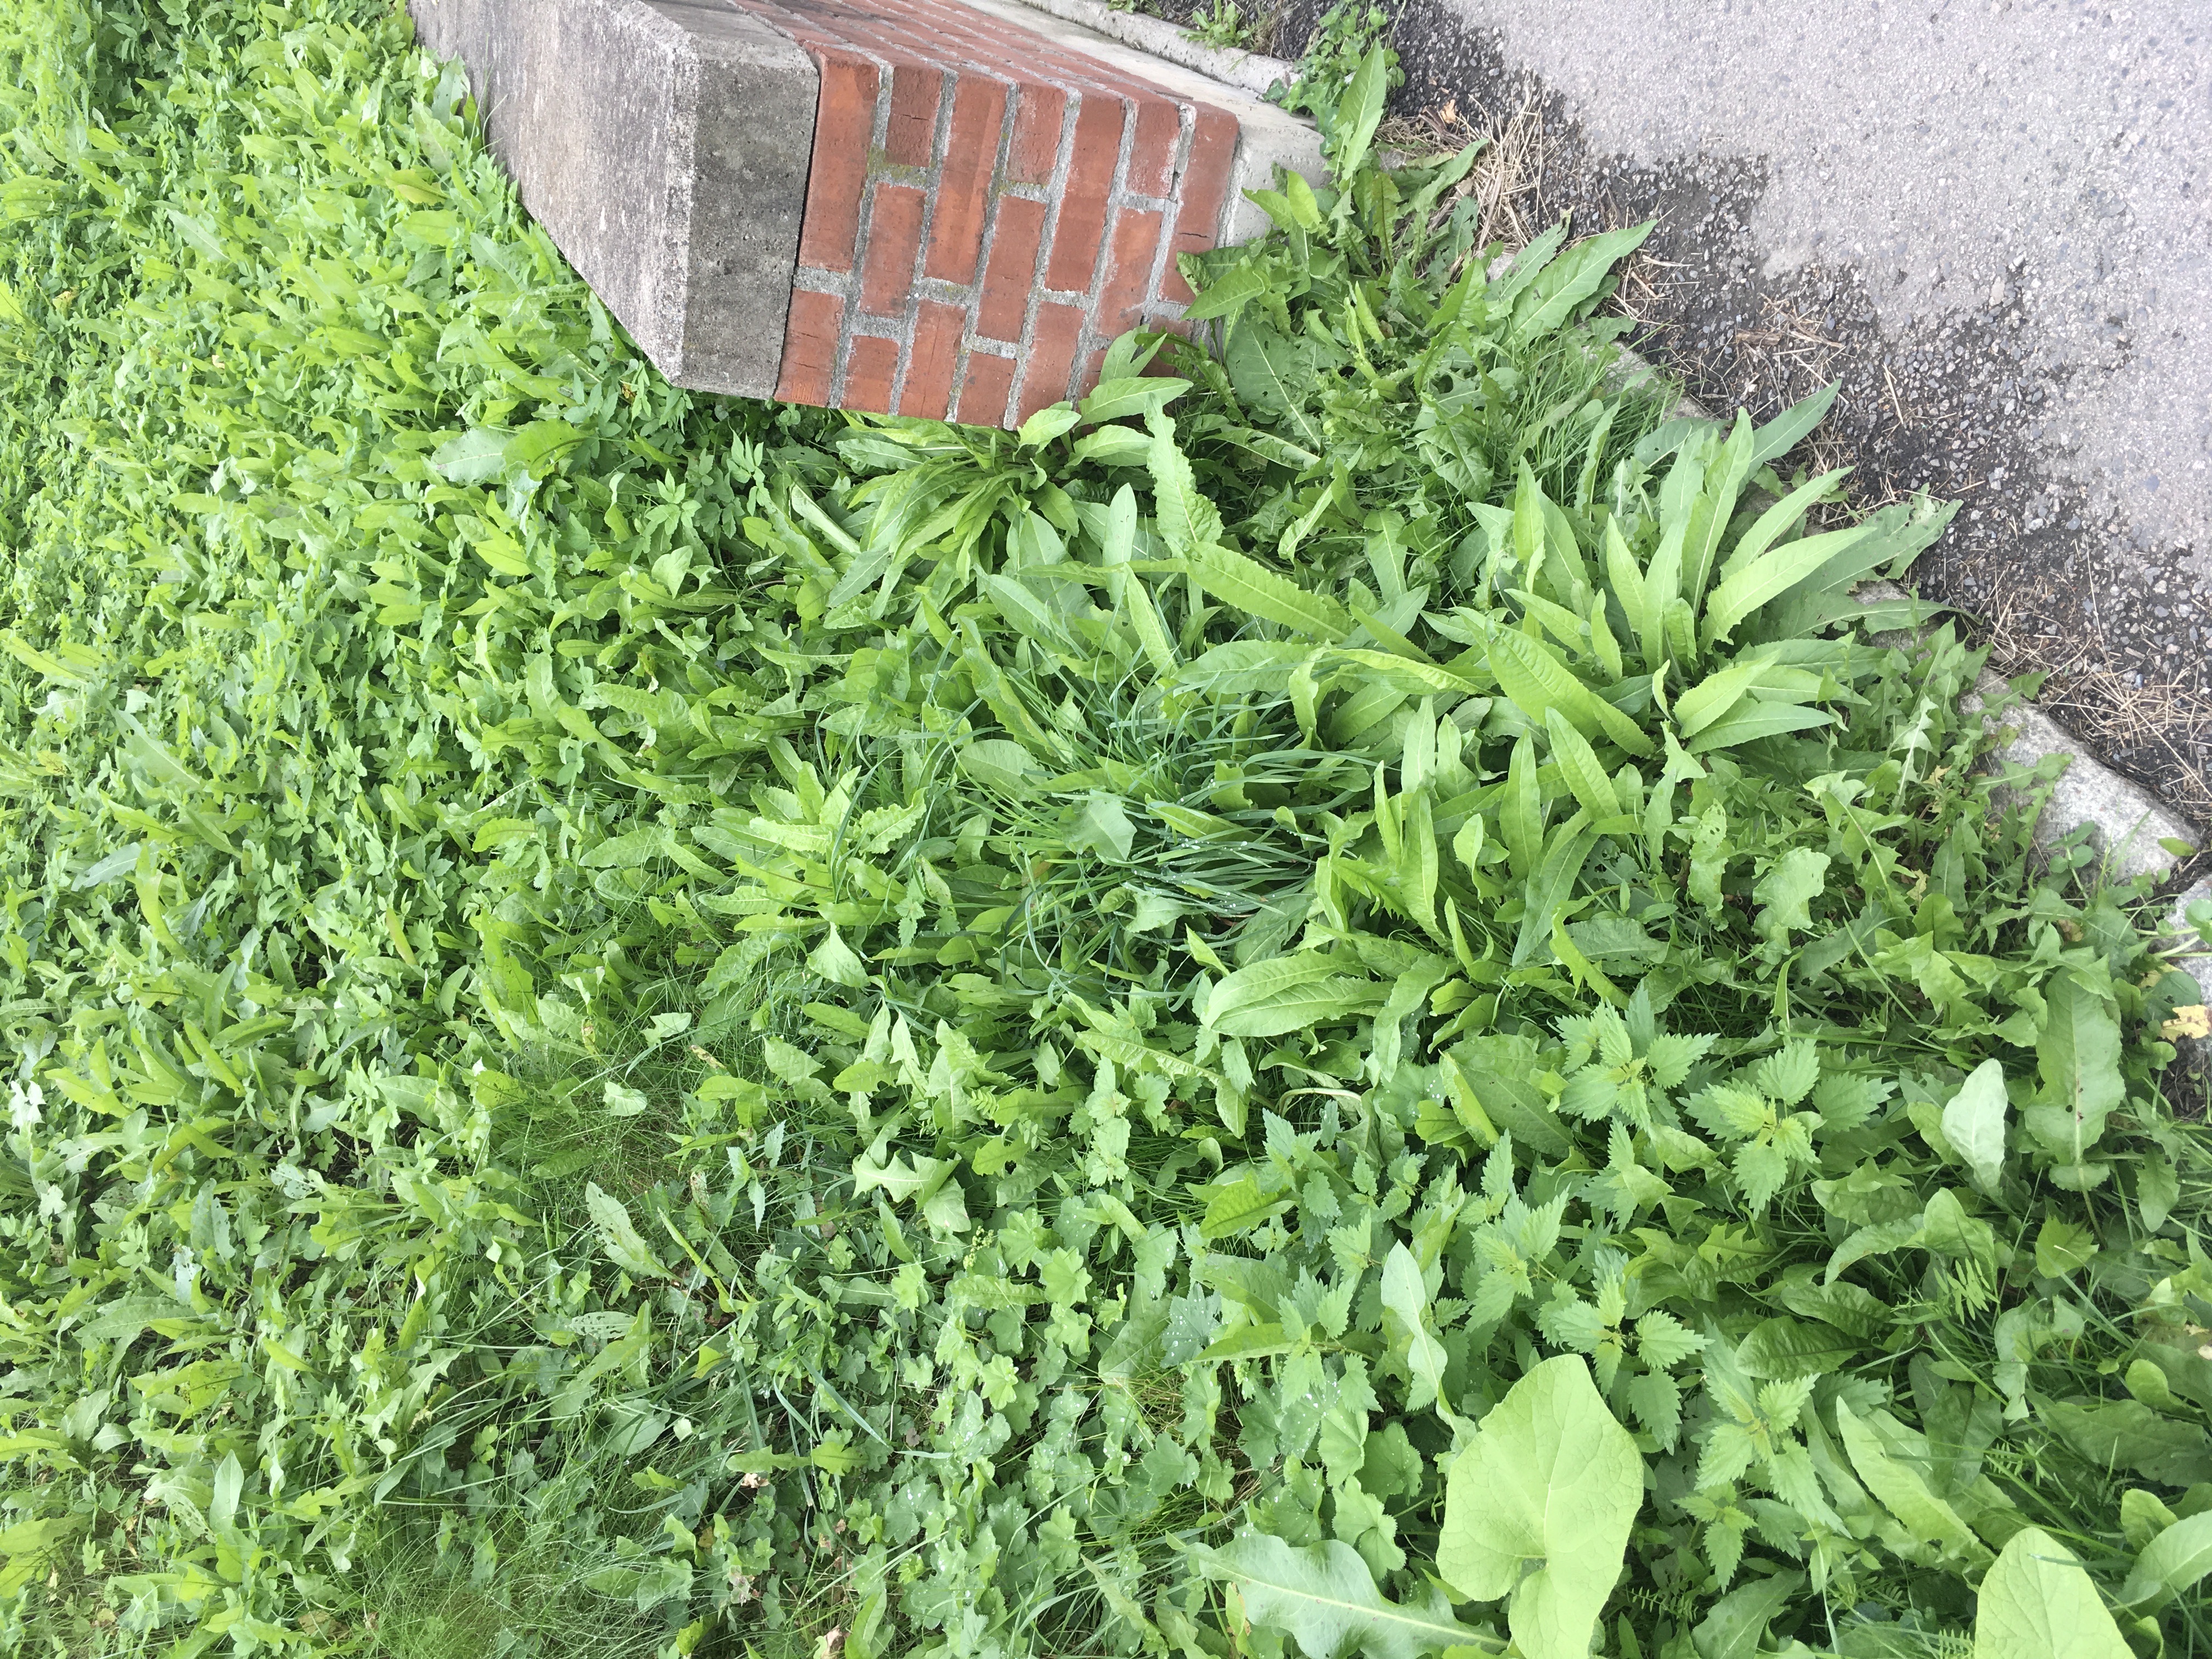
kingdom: Plantae
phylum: Tracheophyta
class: Magnoliopsida
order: Brassicales
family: Brassicaceae
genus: Bunias
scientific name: Bunias orientalis
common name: russekål
